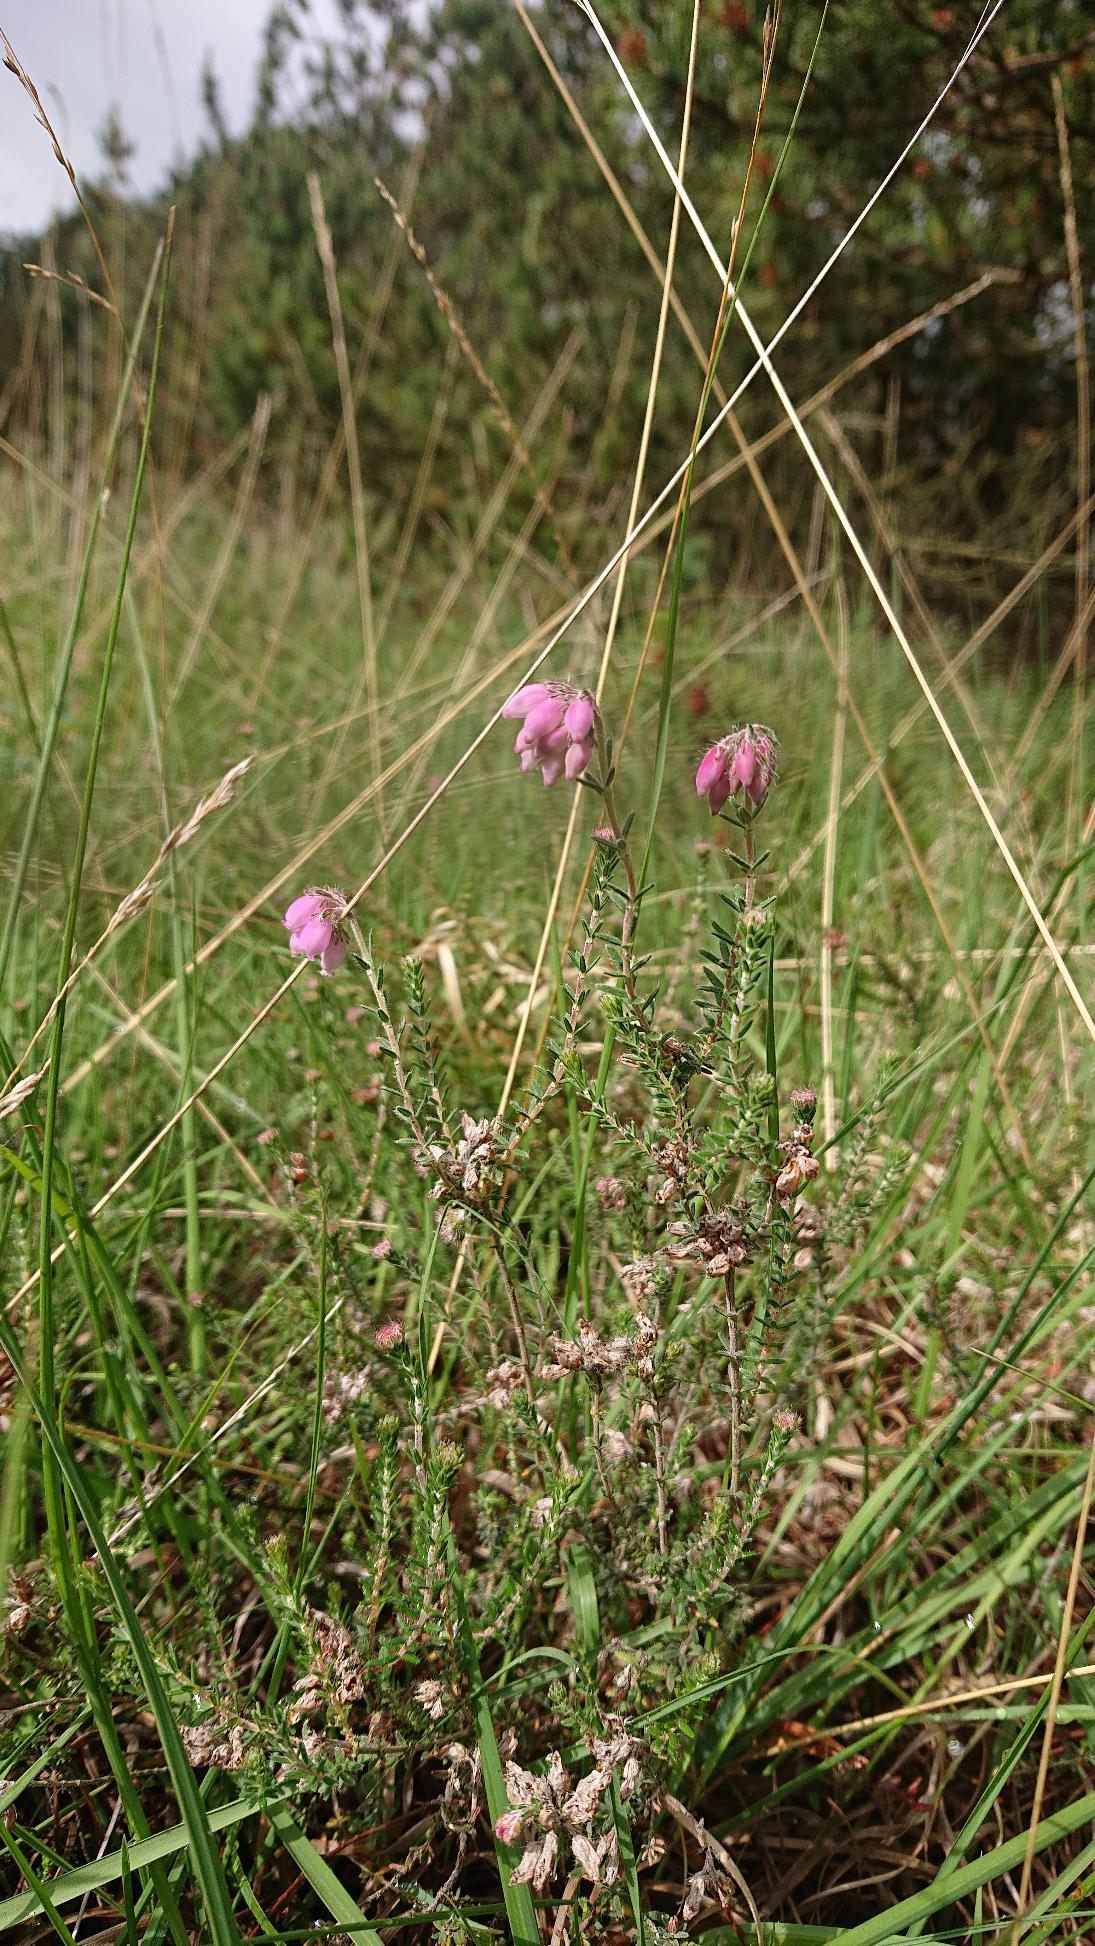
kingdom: Plantae
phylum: Tracheophyta
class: Magnoliopsida
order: Ericales
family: Ericaceae
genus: Erica
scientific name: Erica tetralix
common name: Klokkelyng
